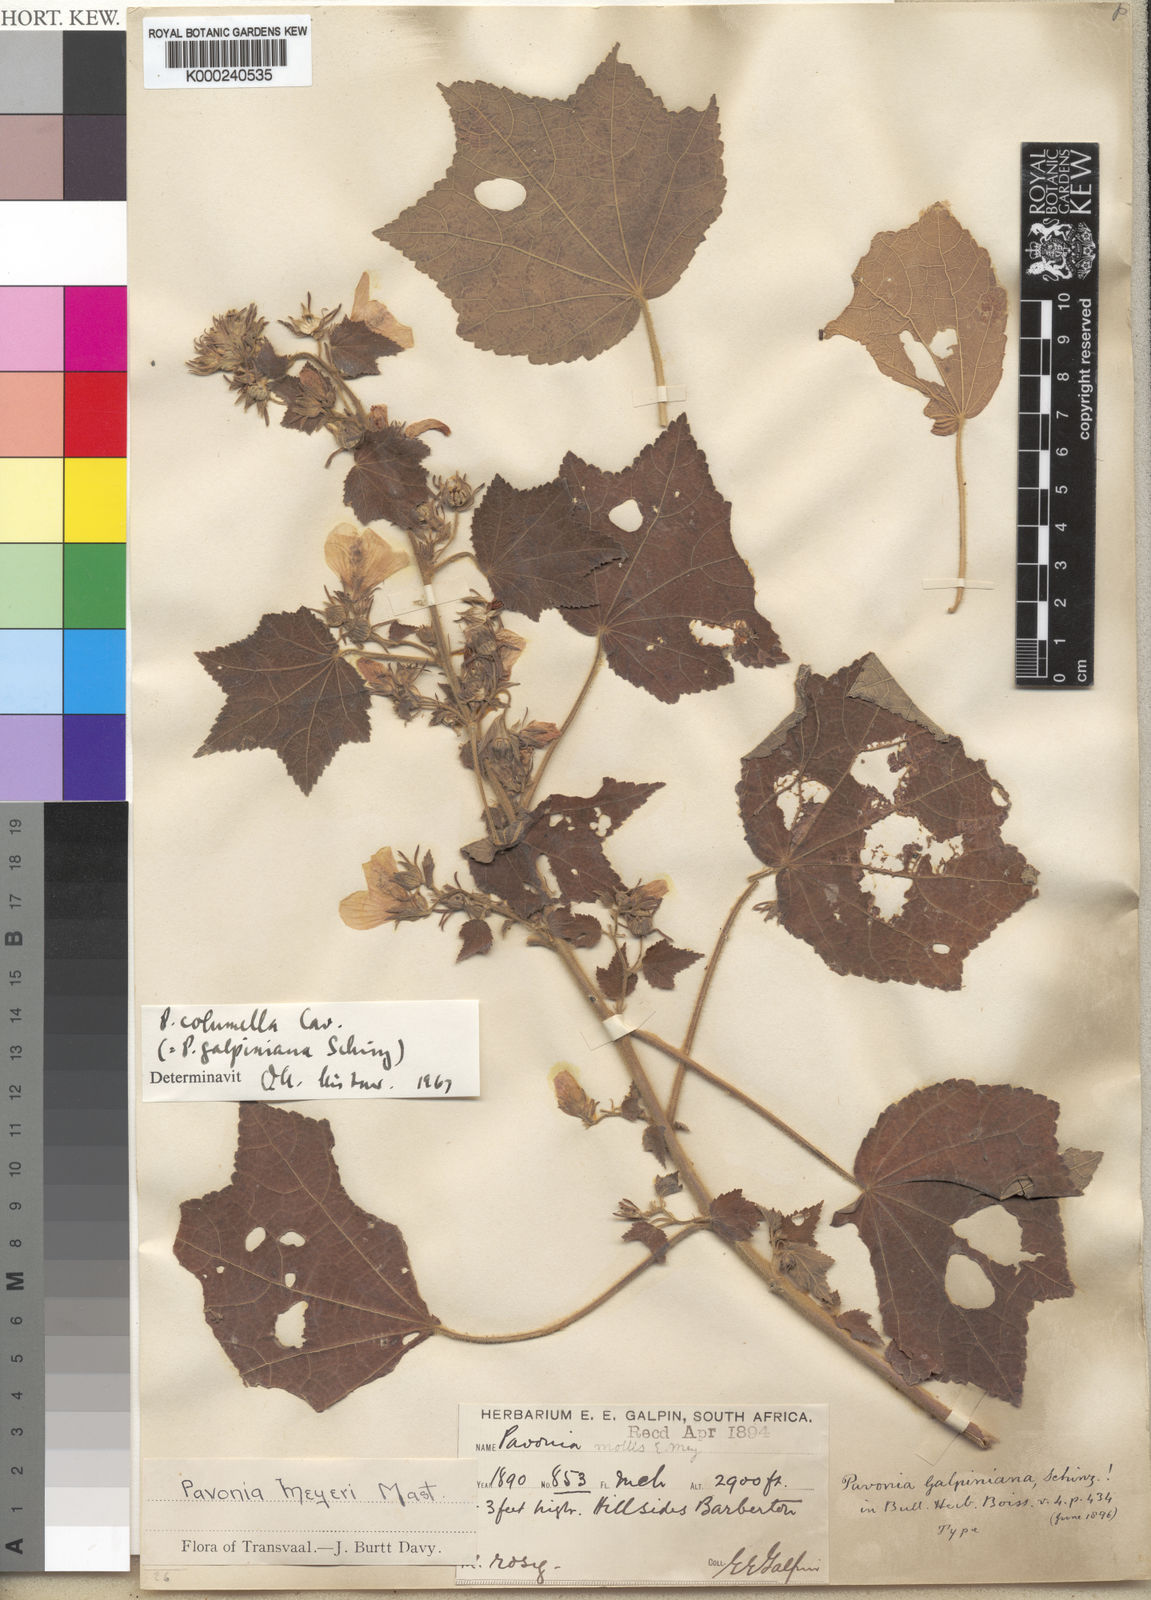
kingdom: Plantae
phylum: Tracheophyta
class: Magnoliopsida
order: Malvales
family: Malvaceae
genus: Pavonia
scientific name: Pavonia columella
